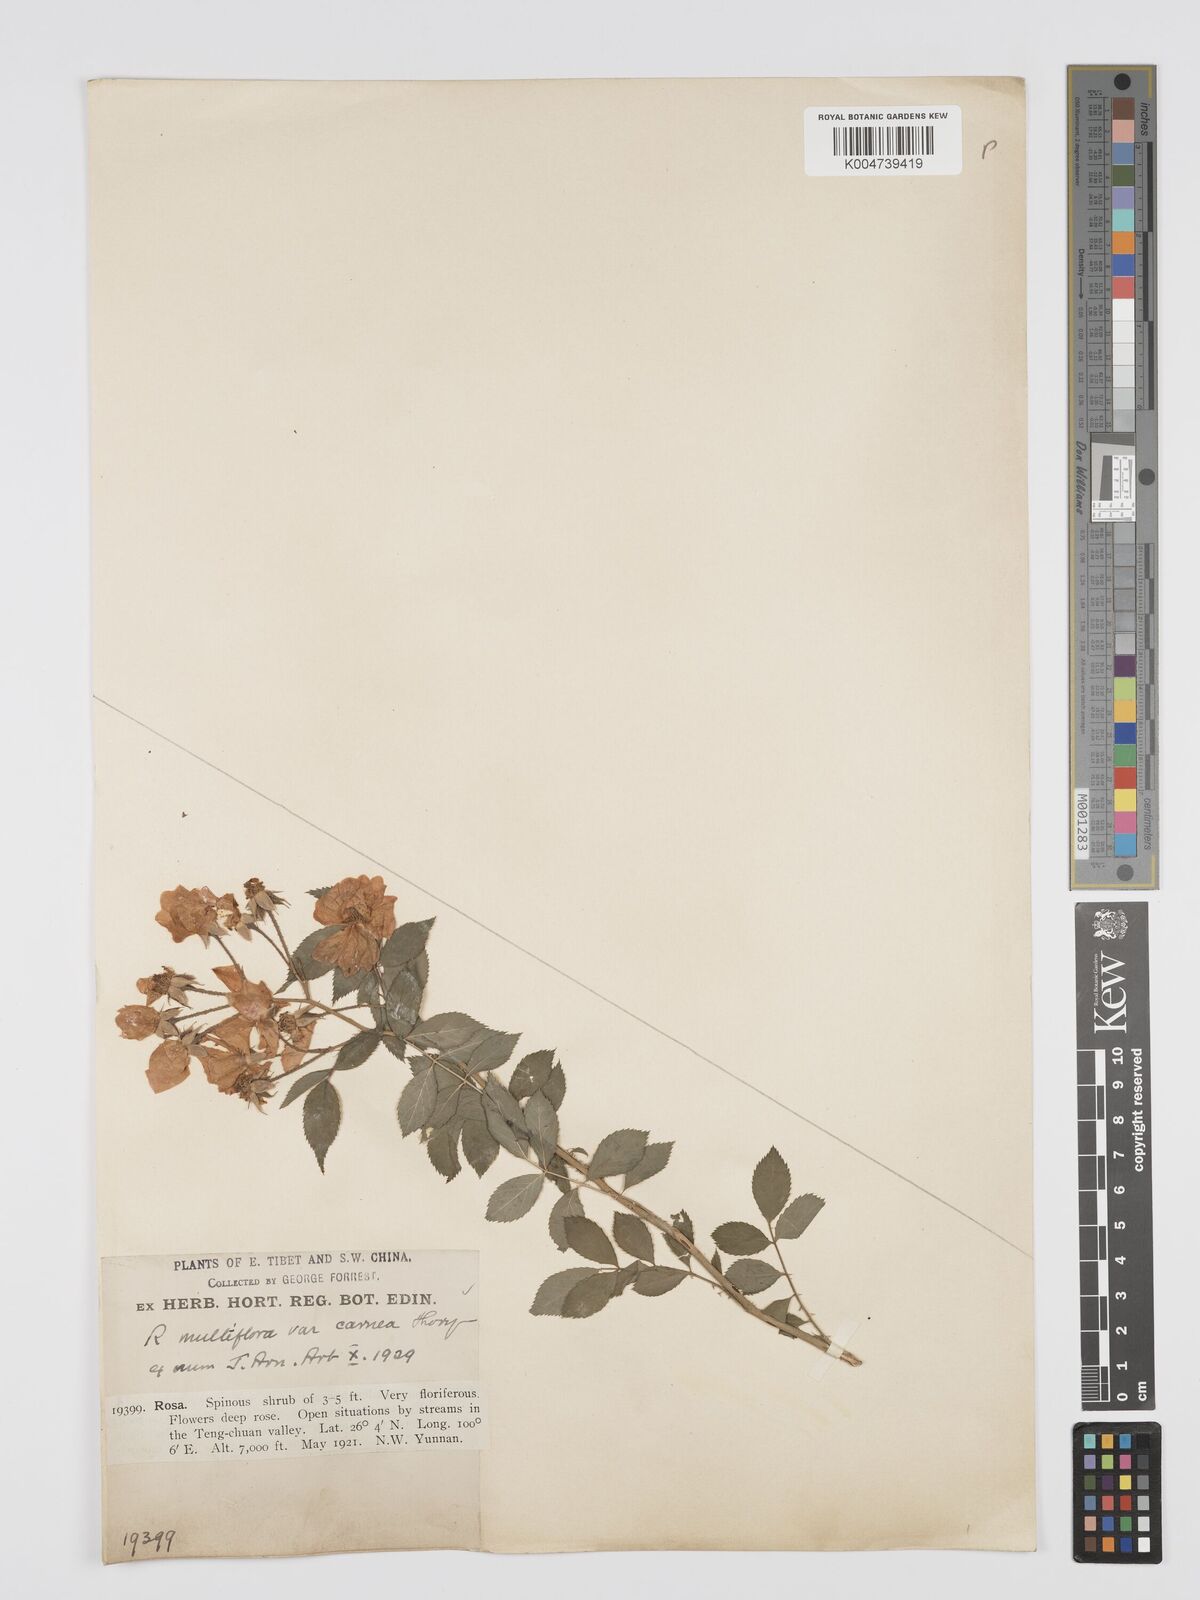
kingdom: Plantae
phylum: Tracheophyta
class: Magnoliopsida
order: Rosales
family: Rosaceae
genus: Rosa
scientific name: Rosa multiflora
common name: Multiflora rose
